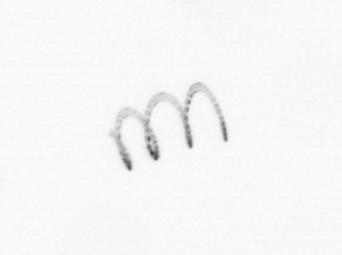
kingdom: Chromista
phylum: Ochrophyta
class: Bacillariophyceae
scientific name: Bacillariophyceae
